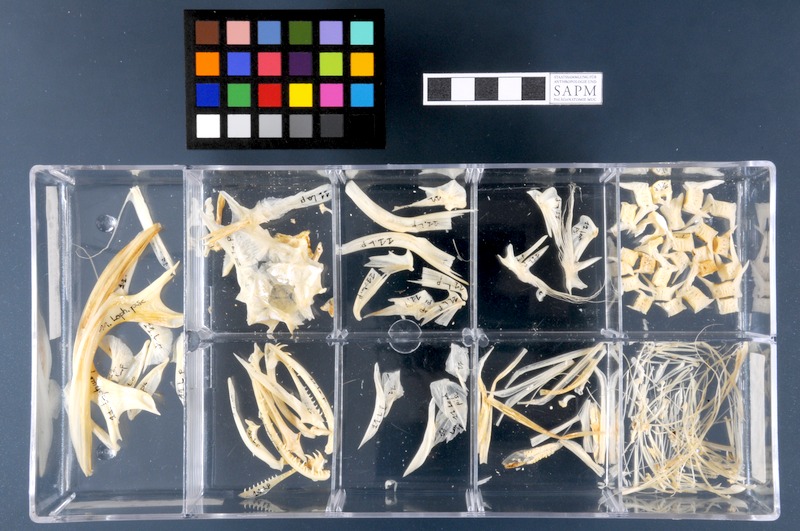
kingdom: Animalia
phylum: Chordata
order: Lophiiformes
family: Lophiidae
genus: Lophius
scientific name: Lophius piscatorius
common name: Angler
